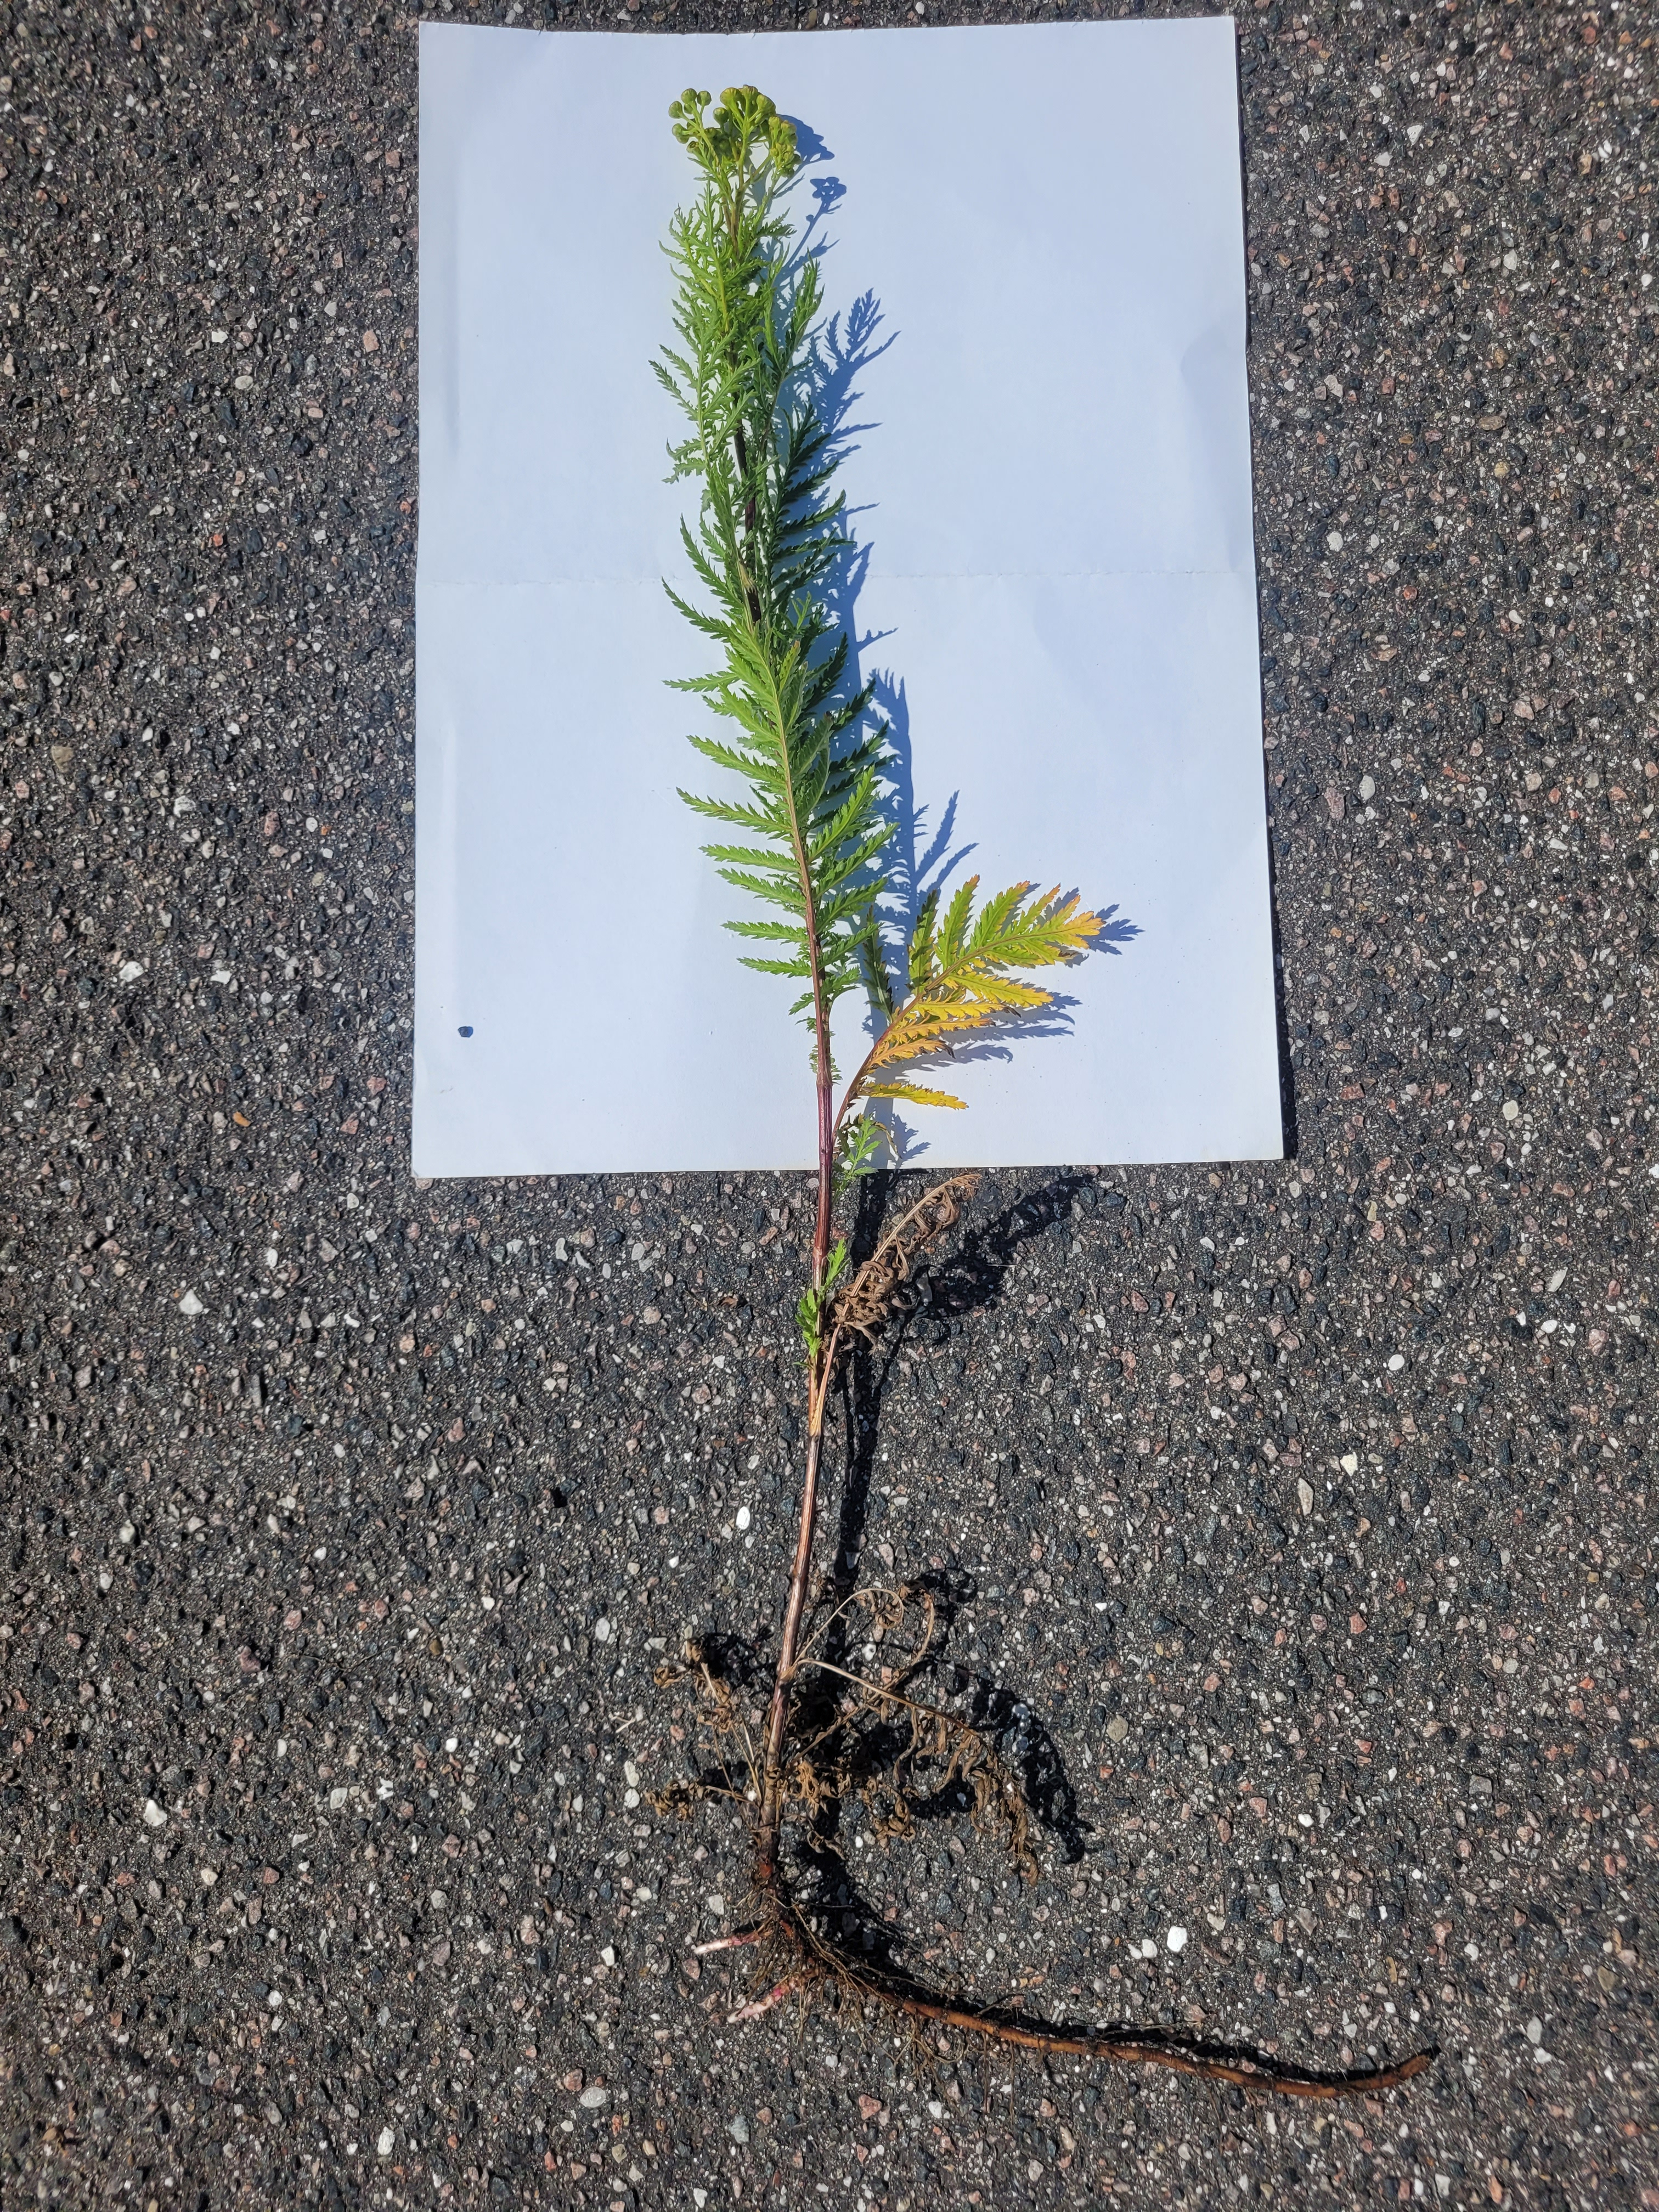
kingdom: Plantae
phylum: Tracheophyta
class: Magnoliopsida
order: Asterales
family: Asteraceae
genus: Tanacetum
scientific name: Tanacetum vulgare
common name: Rejnfan
